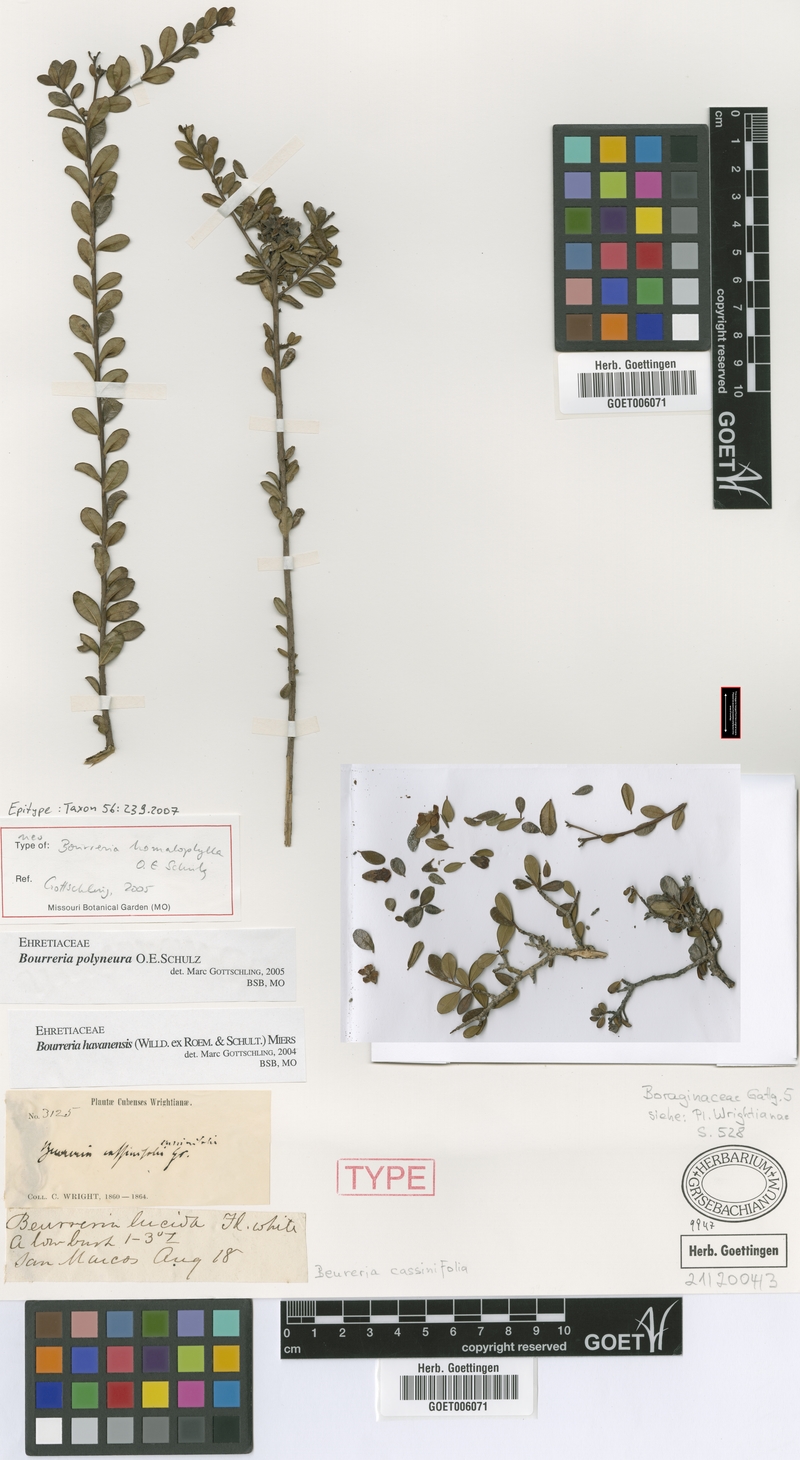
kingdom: Plantae
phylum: Tracheophyta
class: Magnoliopsida
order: Boraginales
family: Ehretiaceae
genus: Bourreria
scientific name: Bourreria polyneura
